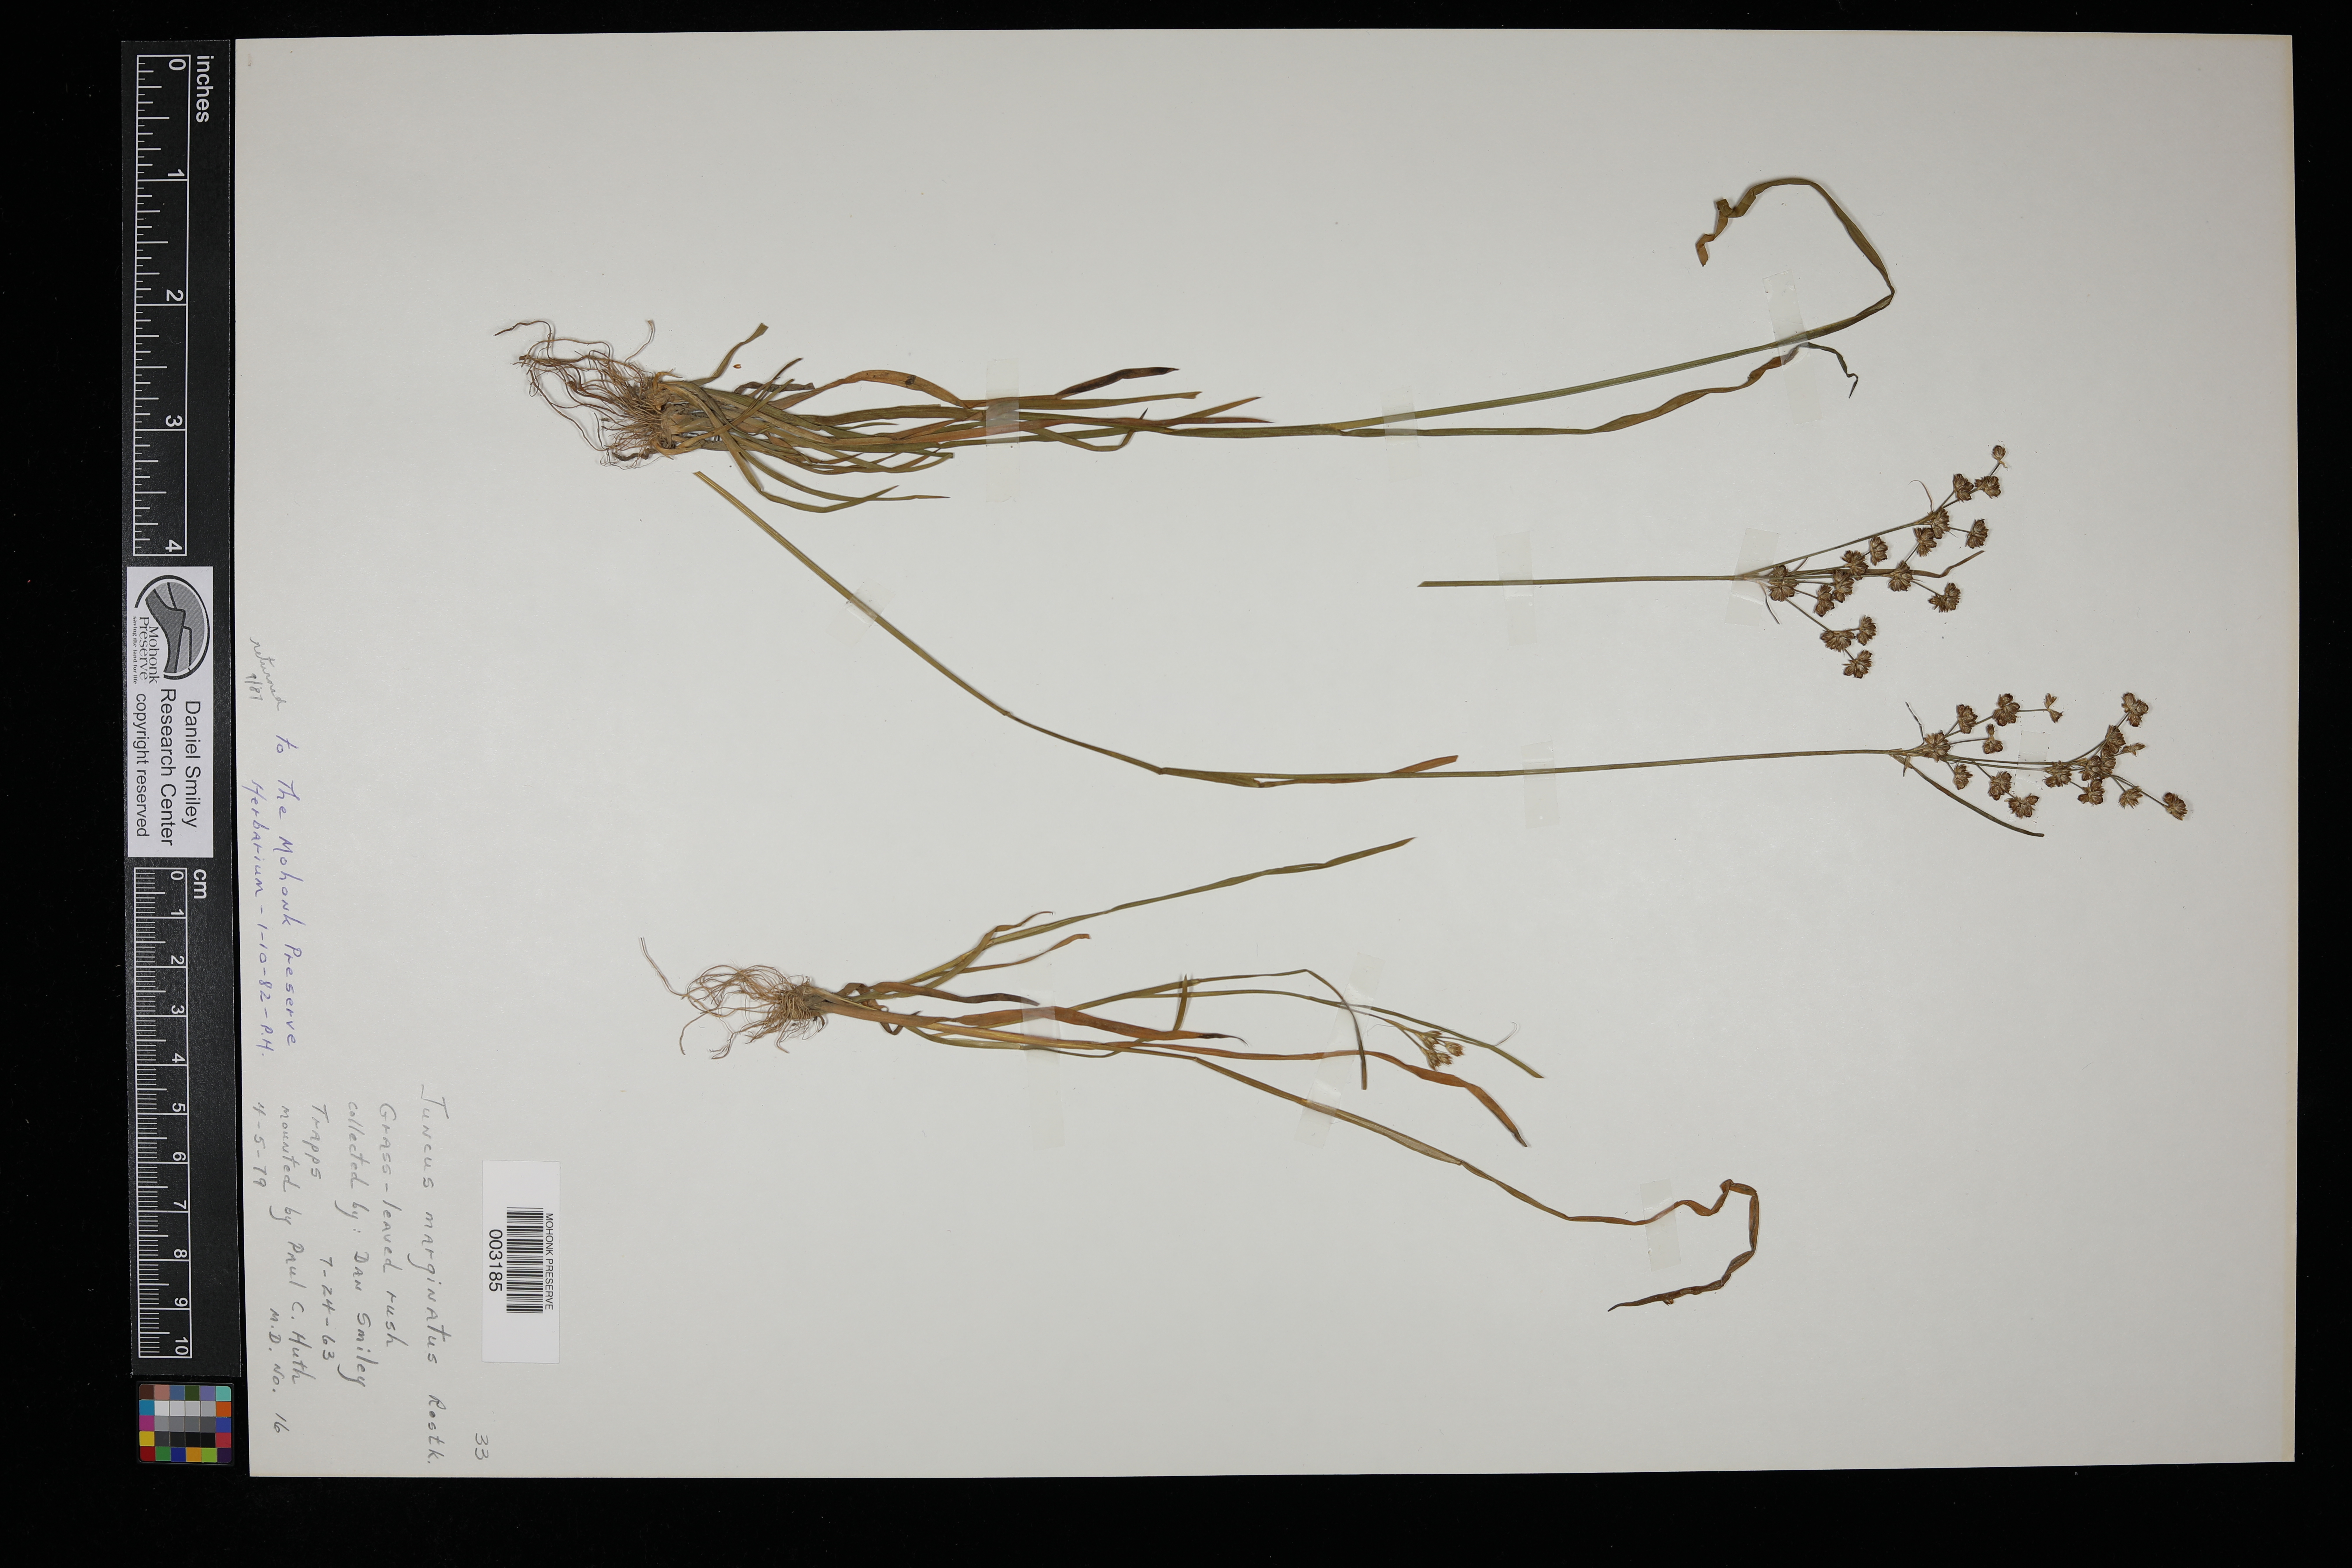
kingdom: Plantae
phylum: Tracheophyta
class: Liliopsida
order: Poales
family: Juncaceae
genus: Juncus
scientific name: Juncus marginatus
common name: Grass-leaf rush
